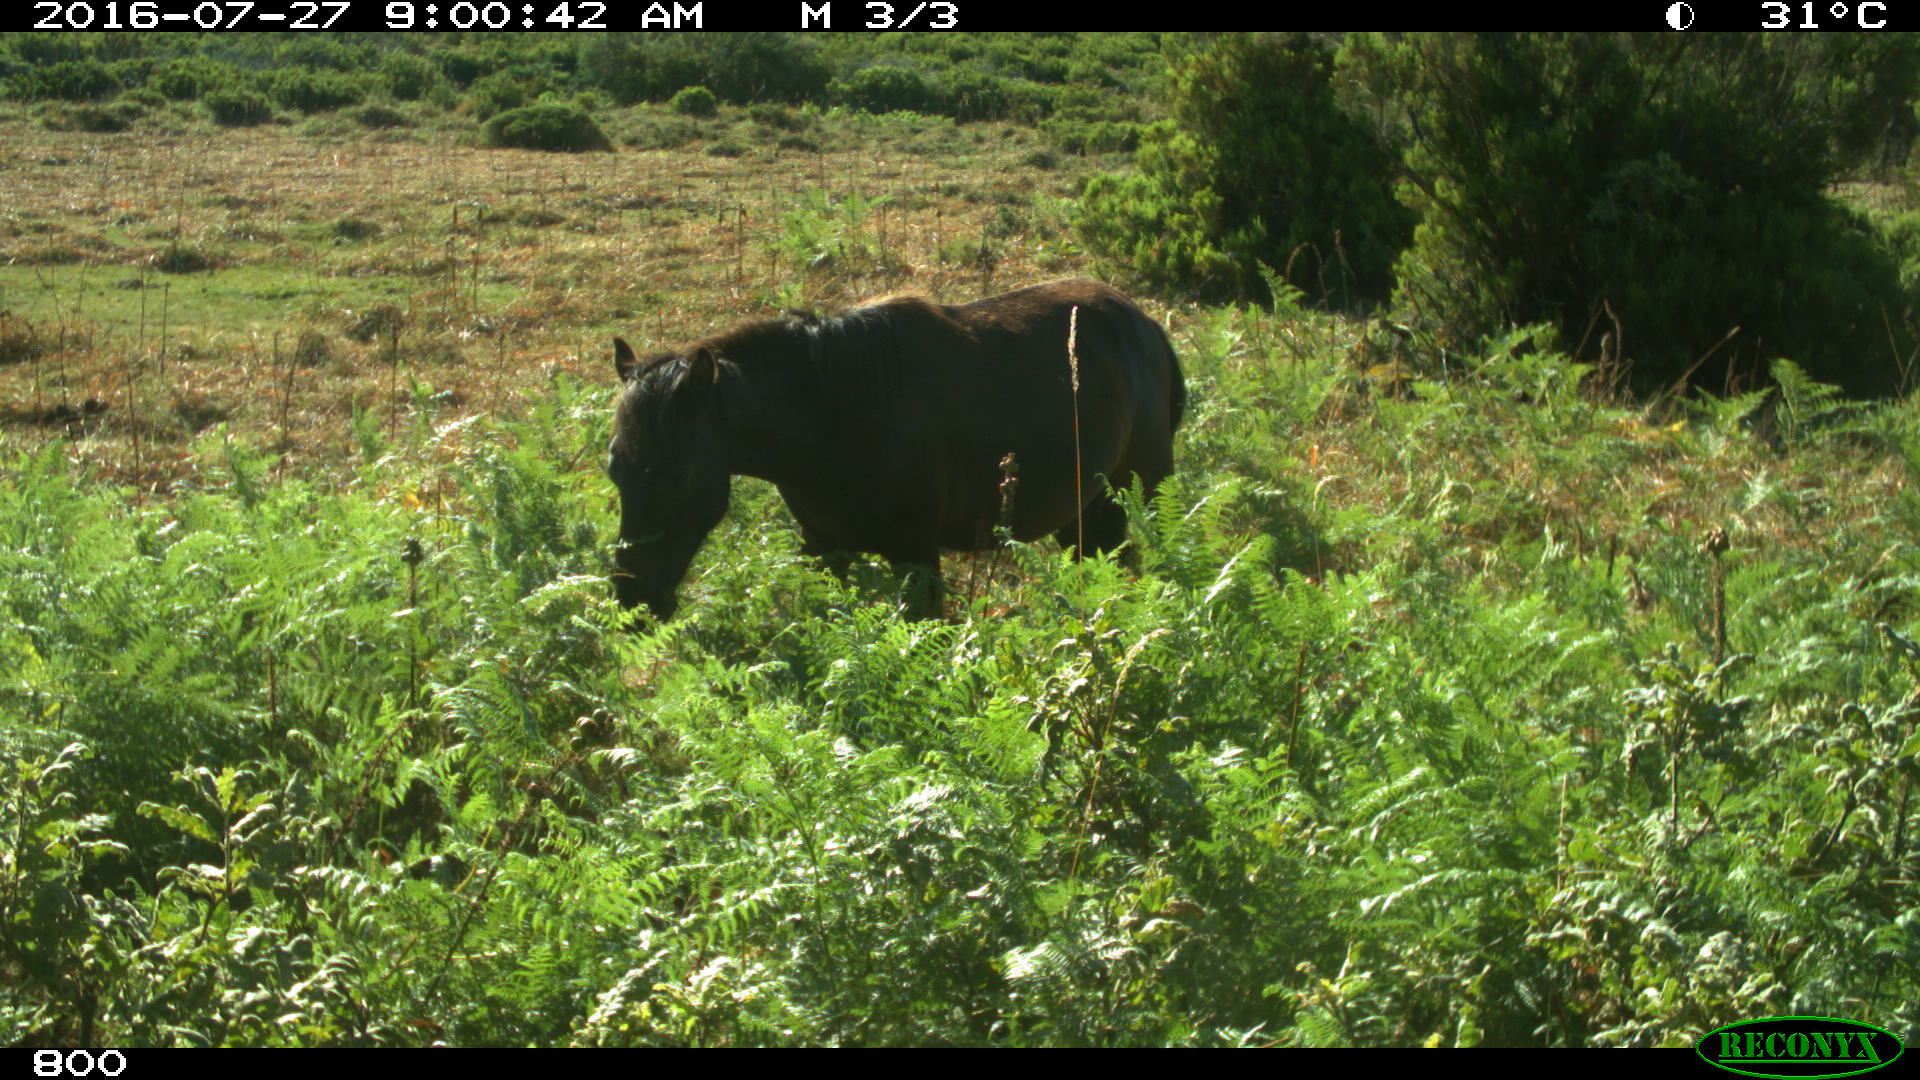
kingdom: Animalia
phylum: Chordata
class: Mammalia
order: Perissodactyla
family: Equidae
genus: Equus
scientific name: Equus caballus
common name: Horse
